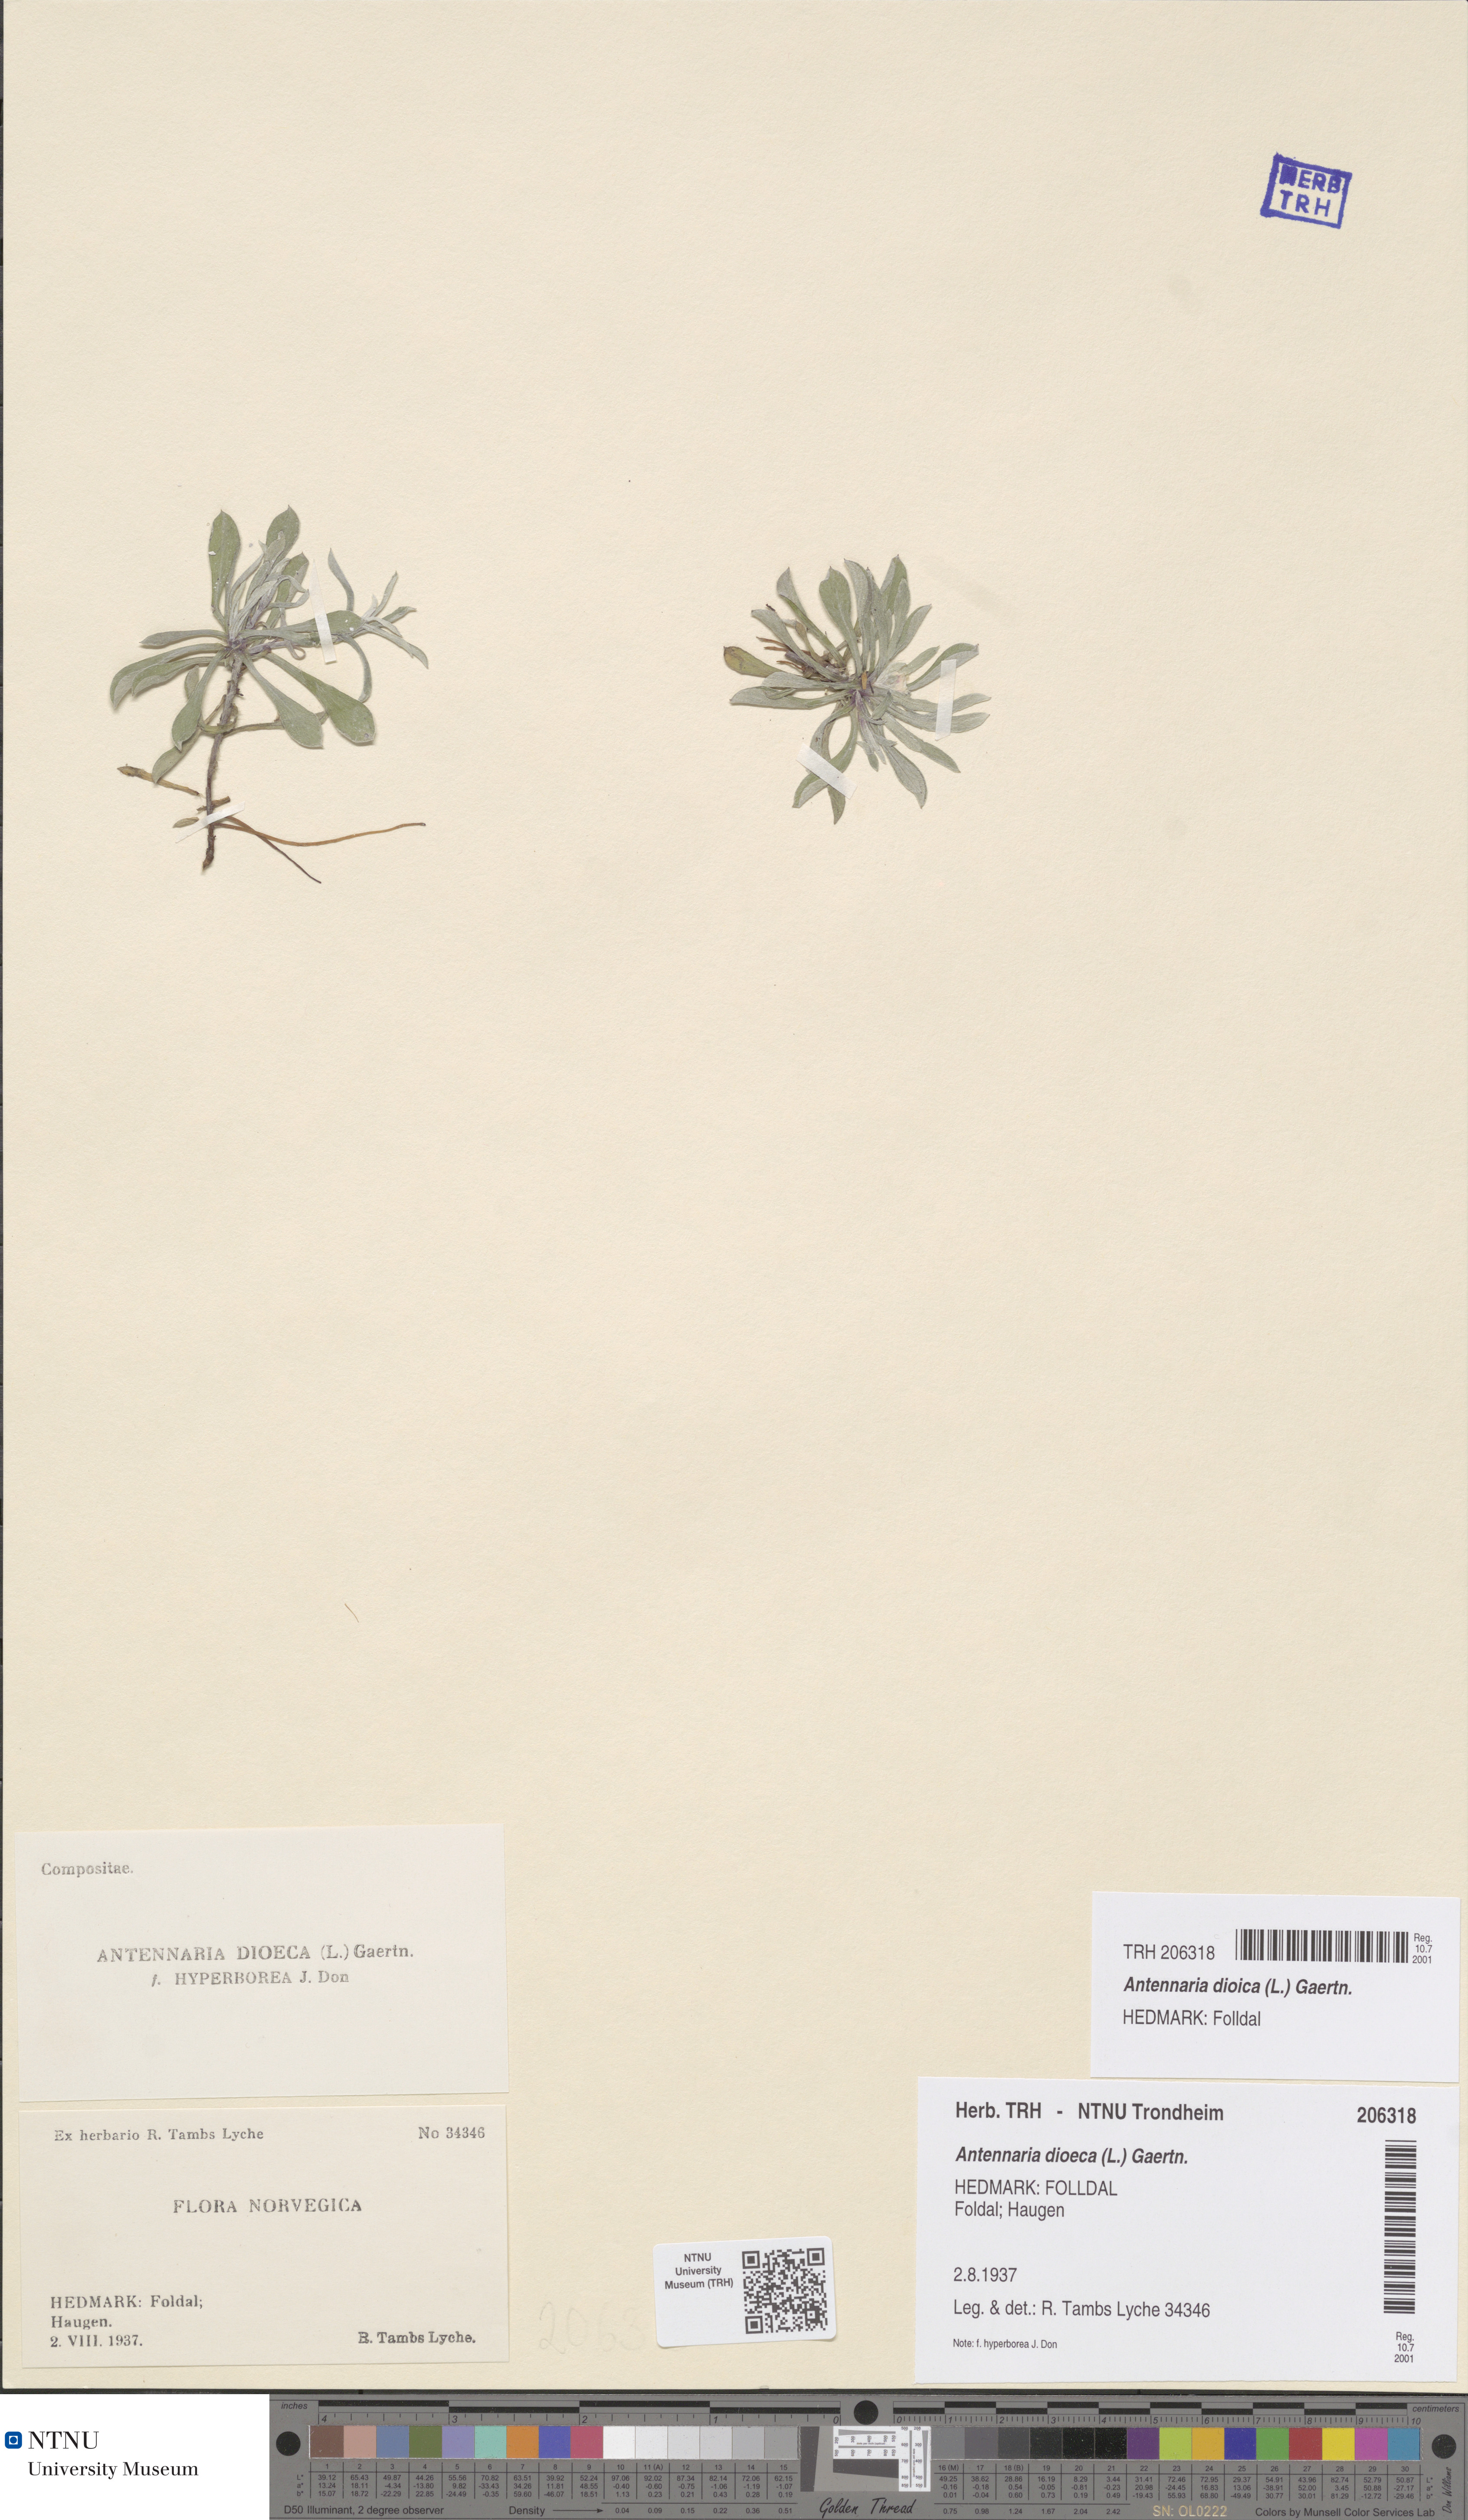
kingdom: Plantae
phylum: Tracheophyta
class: Magnoliopsida
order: Asterales
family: Asteraceae
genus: Antennaria
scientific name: Antennaria dioica
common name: Mountain everlasting
